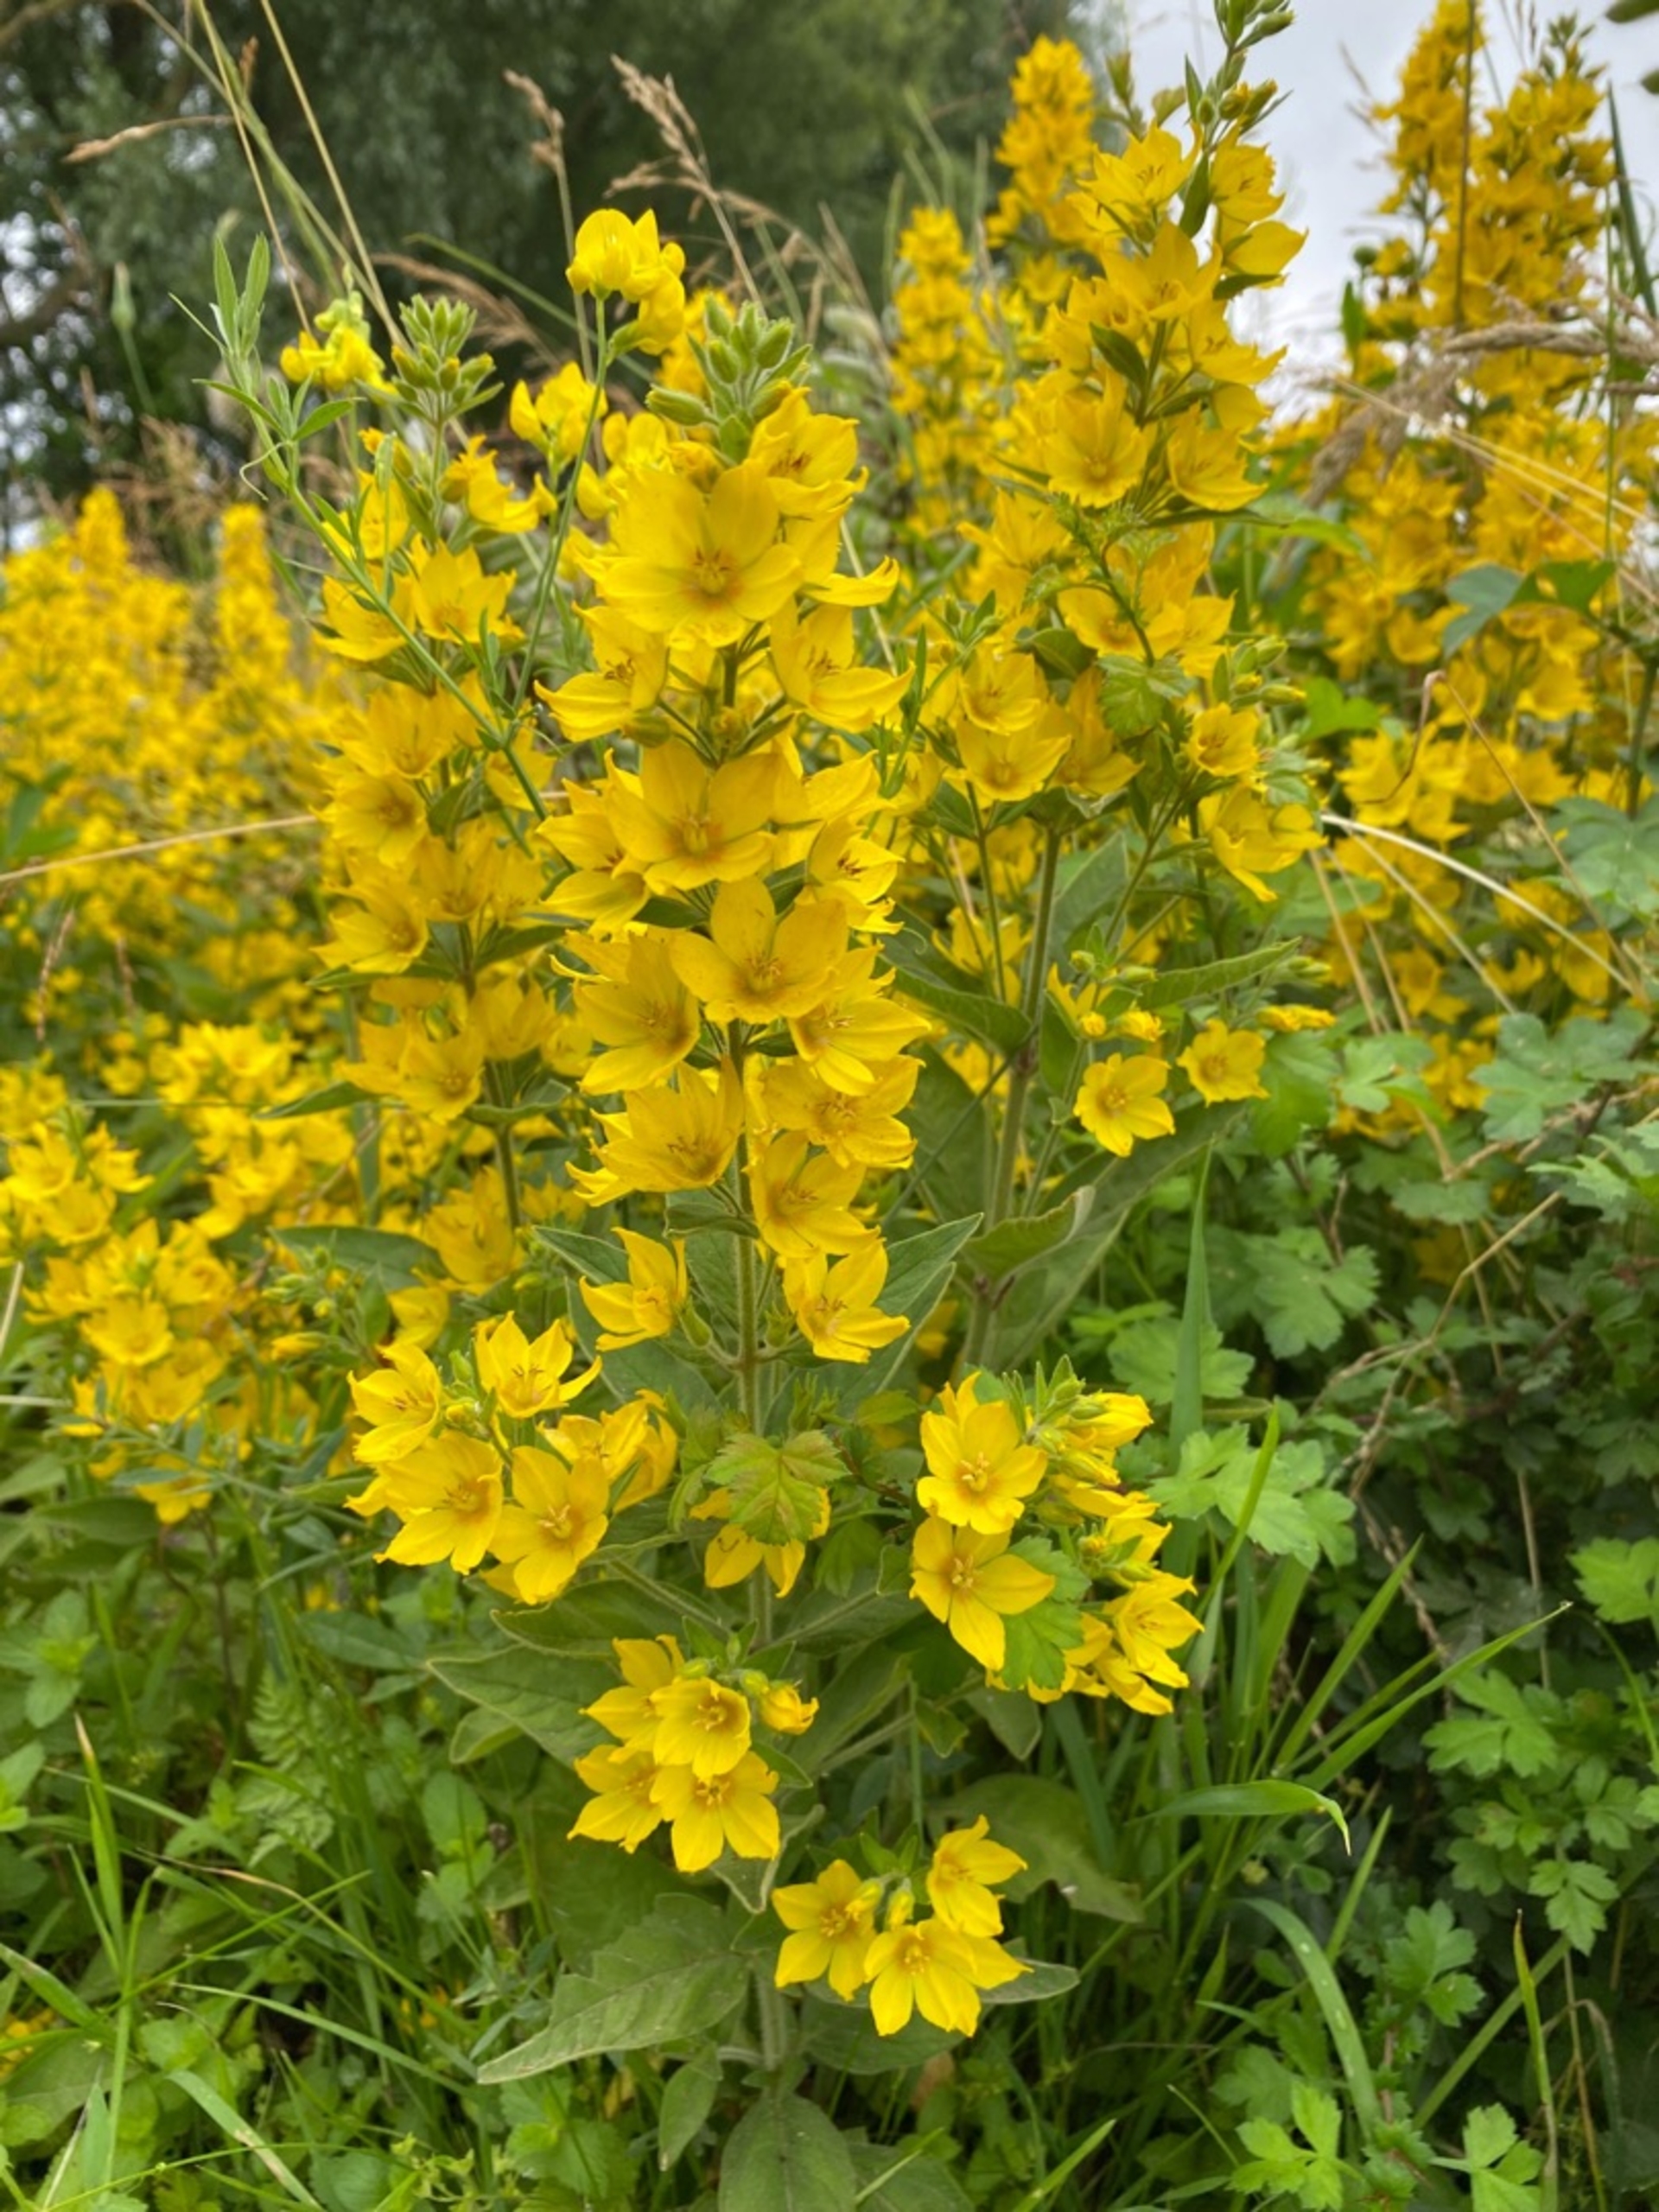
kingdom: Plantae
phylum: Tracheophyta
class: Magnoliopsida
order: Ericales
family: Primulaceae
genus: Lysimachia
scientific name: Lysimachia punctata
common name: Prikbladet fredløs
